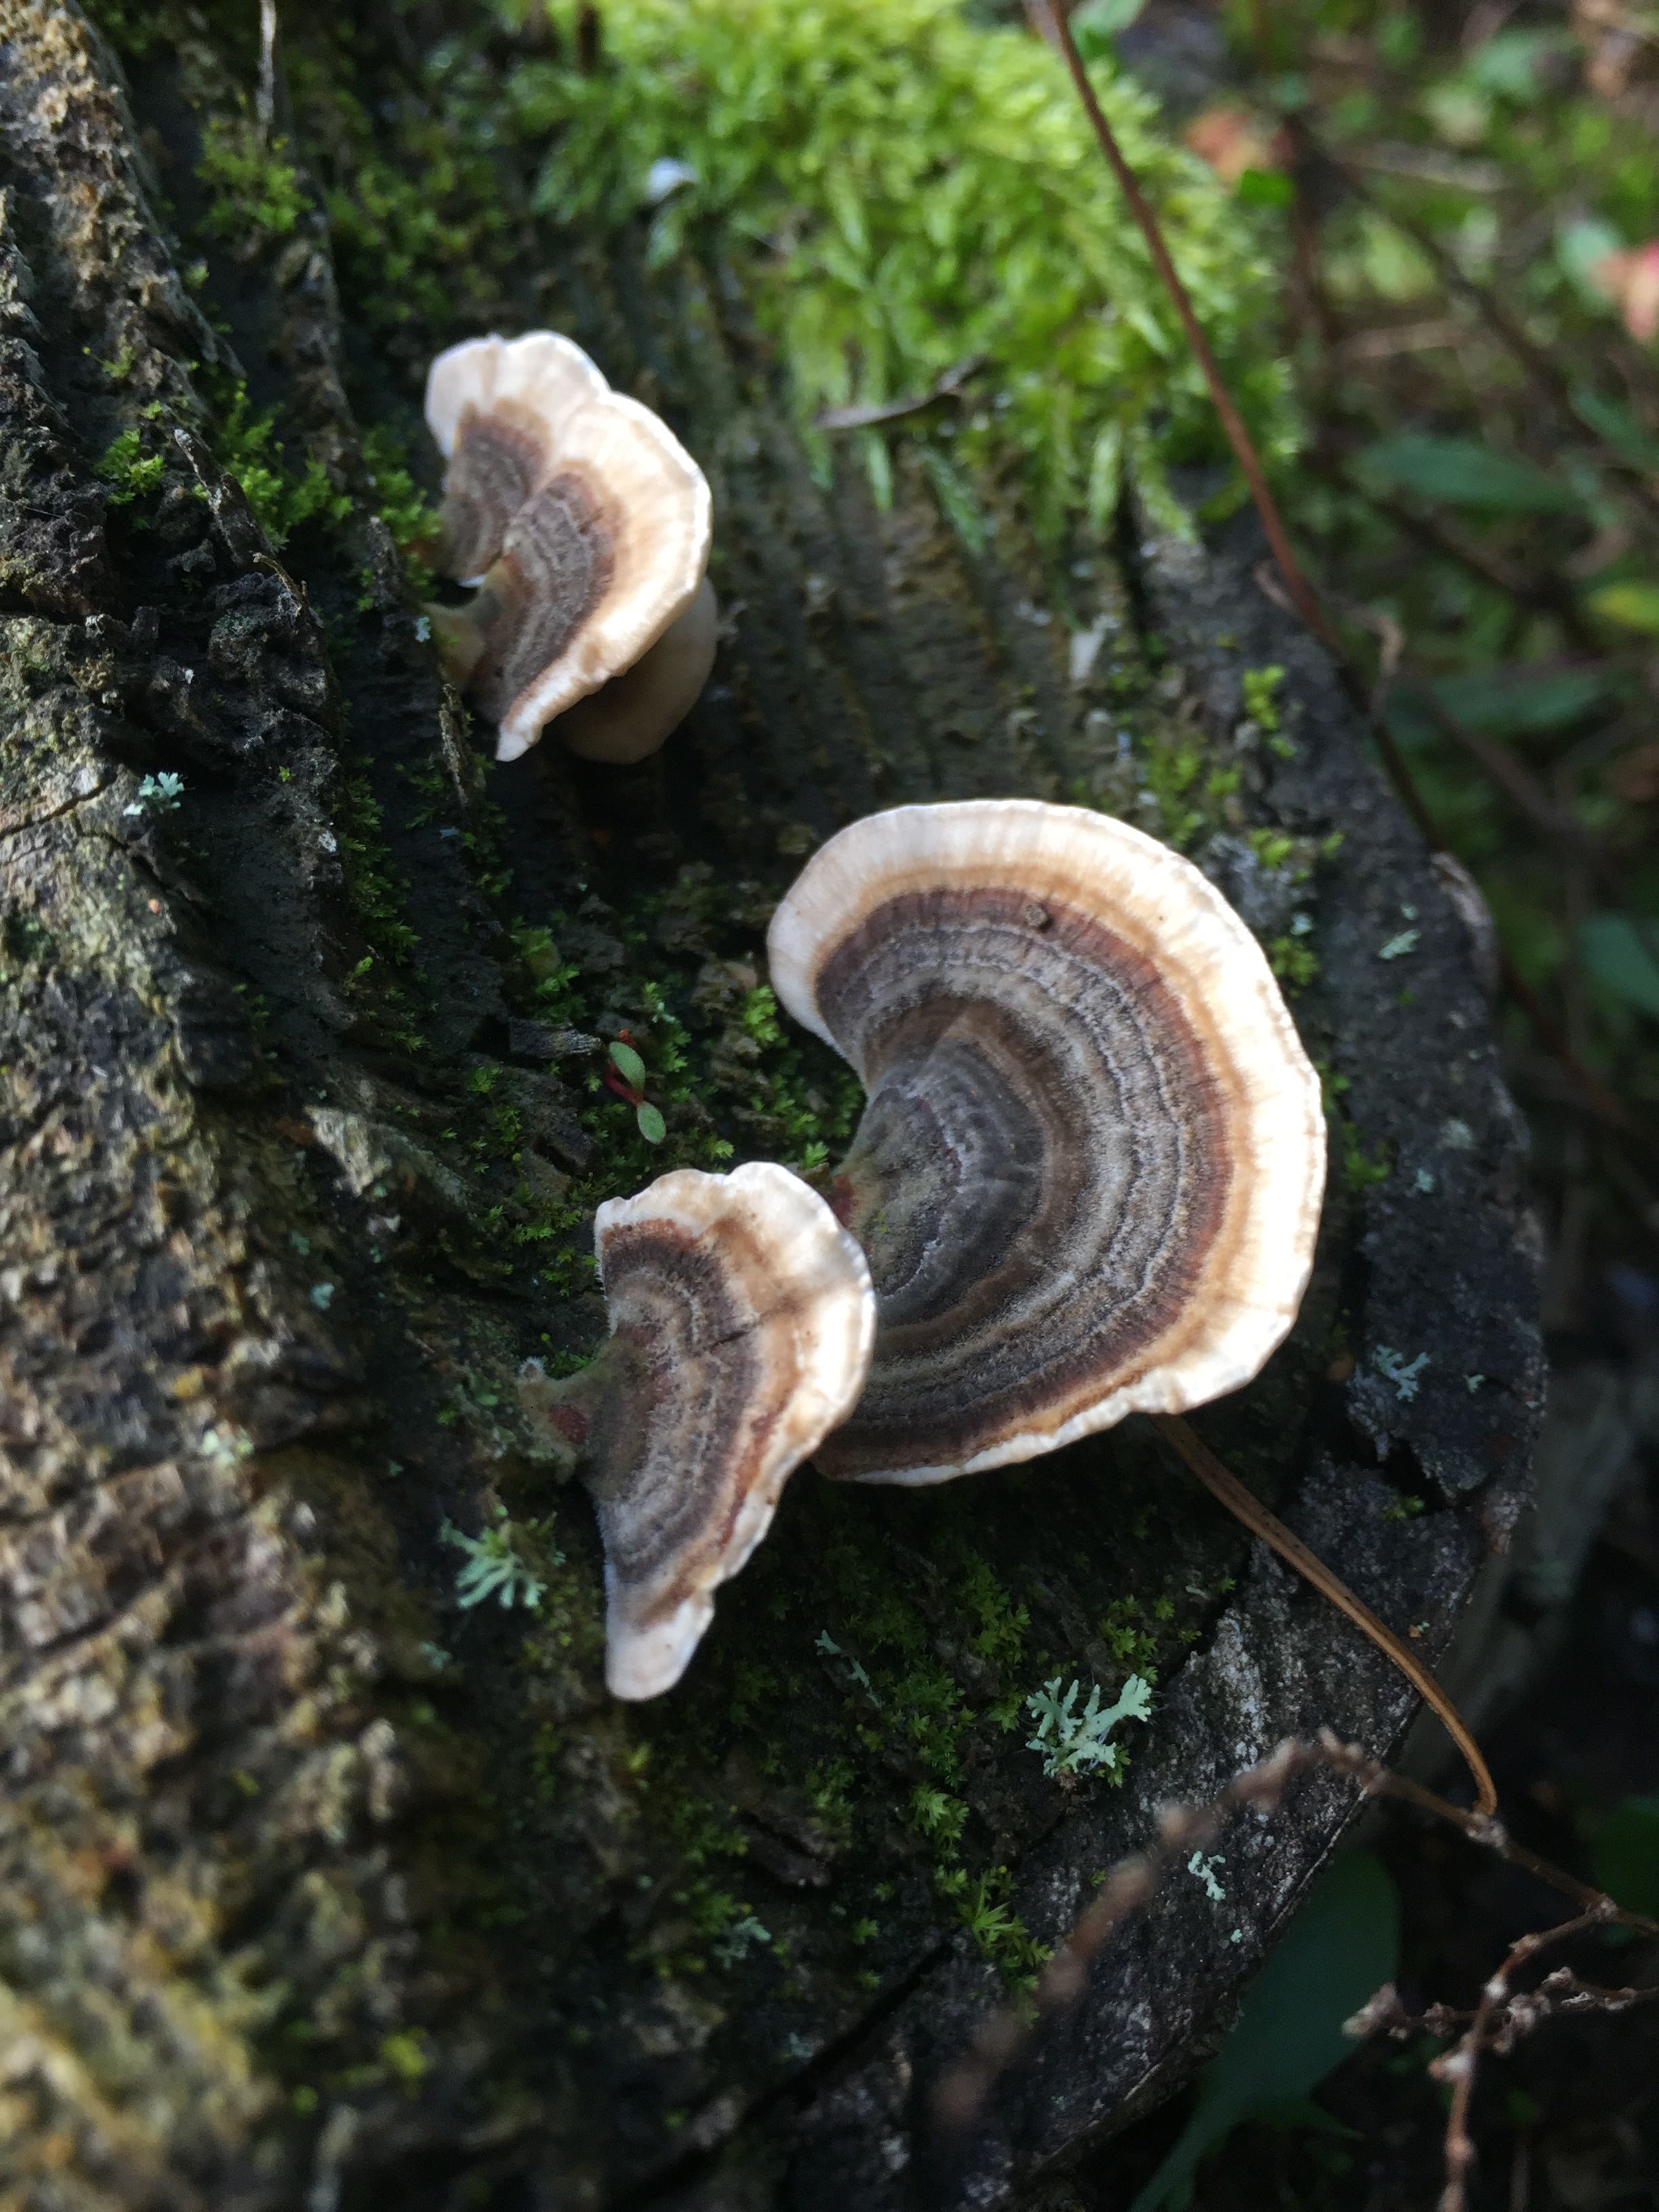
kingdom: Fungi
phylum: Basidiomycota
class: Agaricomycetes
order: Polyporales
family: Polyporaceae
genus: Trametes
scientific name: Trametes versicolor
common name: broget læderporesvamp
